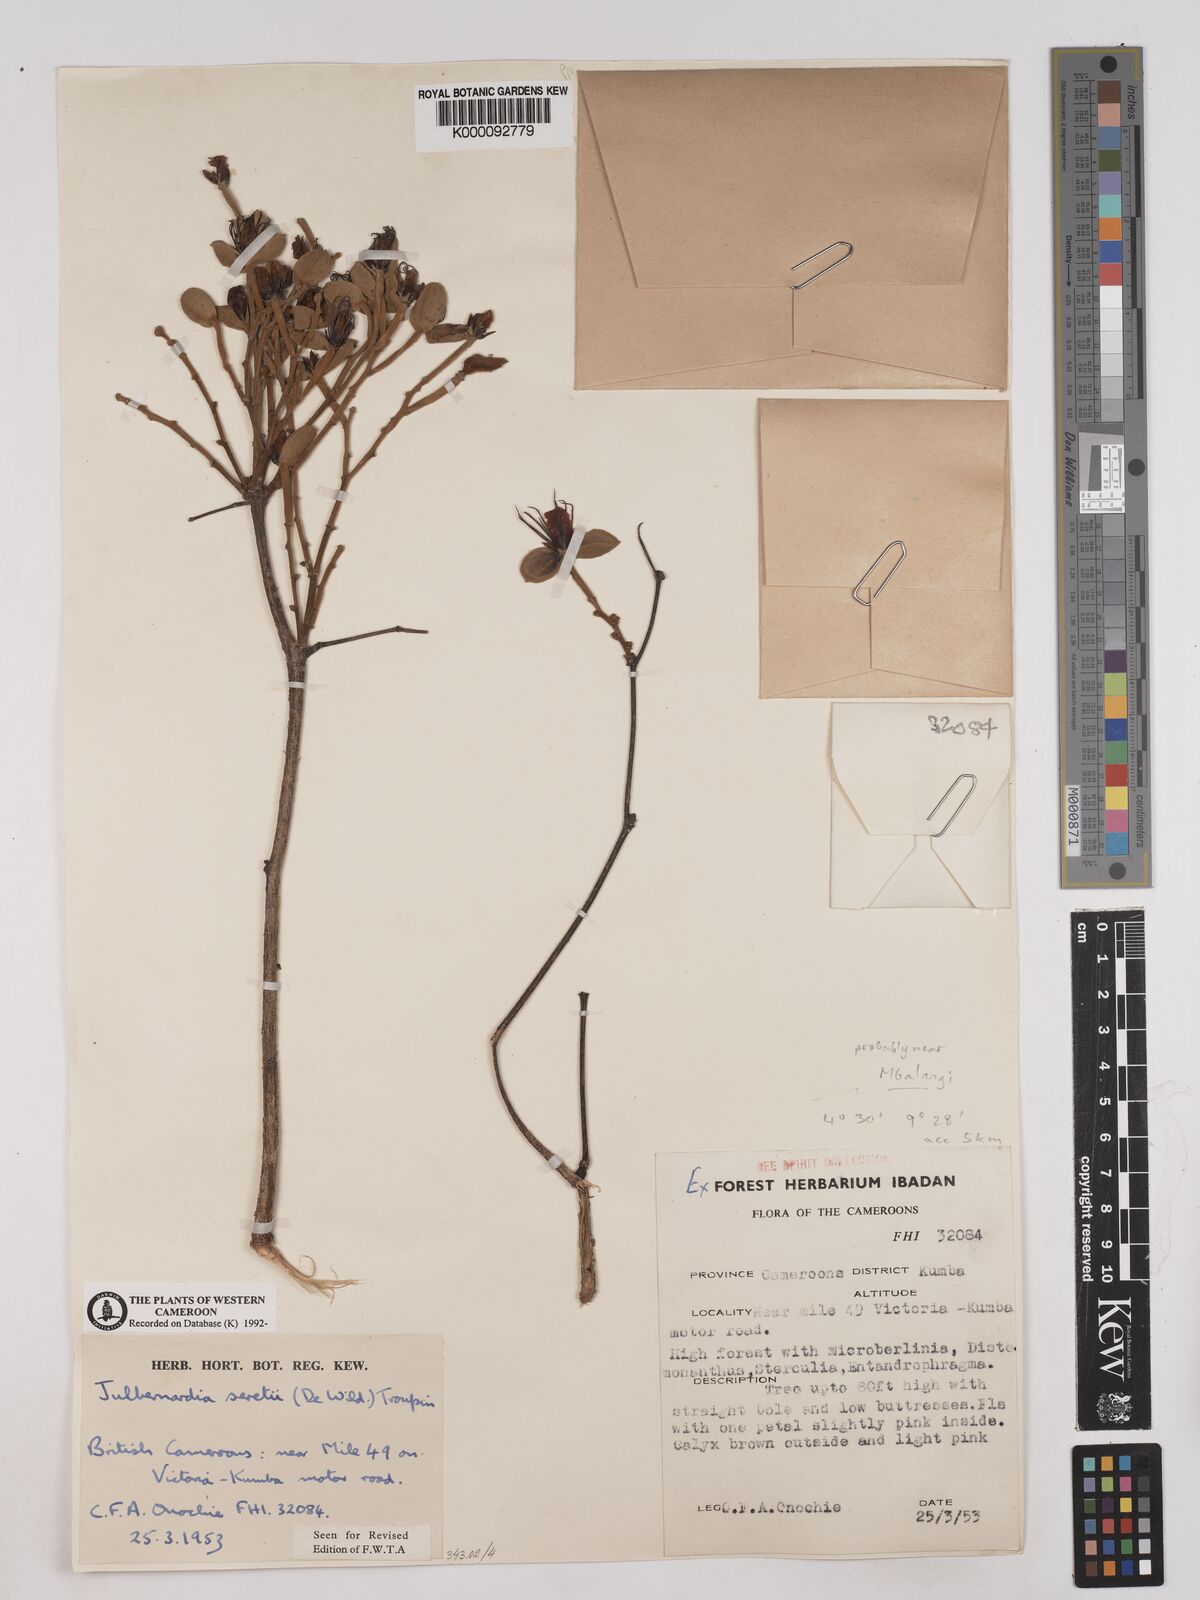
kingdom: Plantae
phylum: Tracheophyta
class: Magnoliopsida
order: Fabales
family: Fabaceae
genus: Julbernardia
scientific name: Julbernardia seretii
